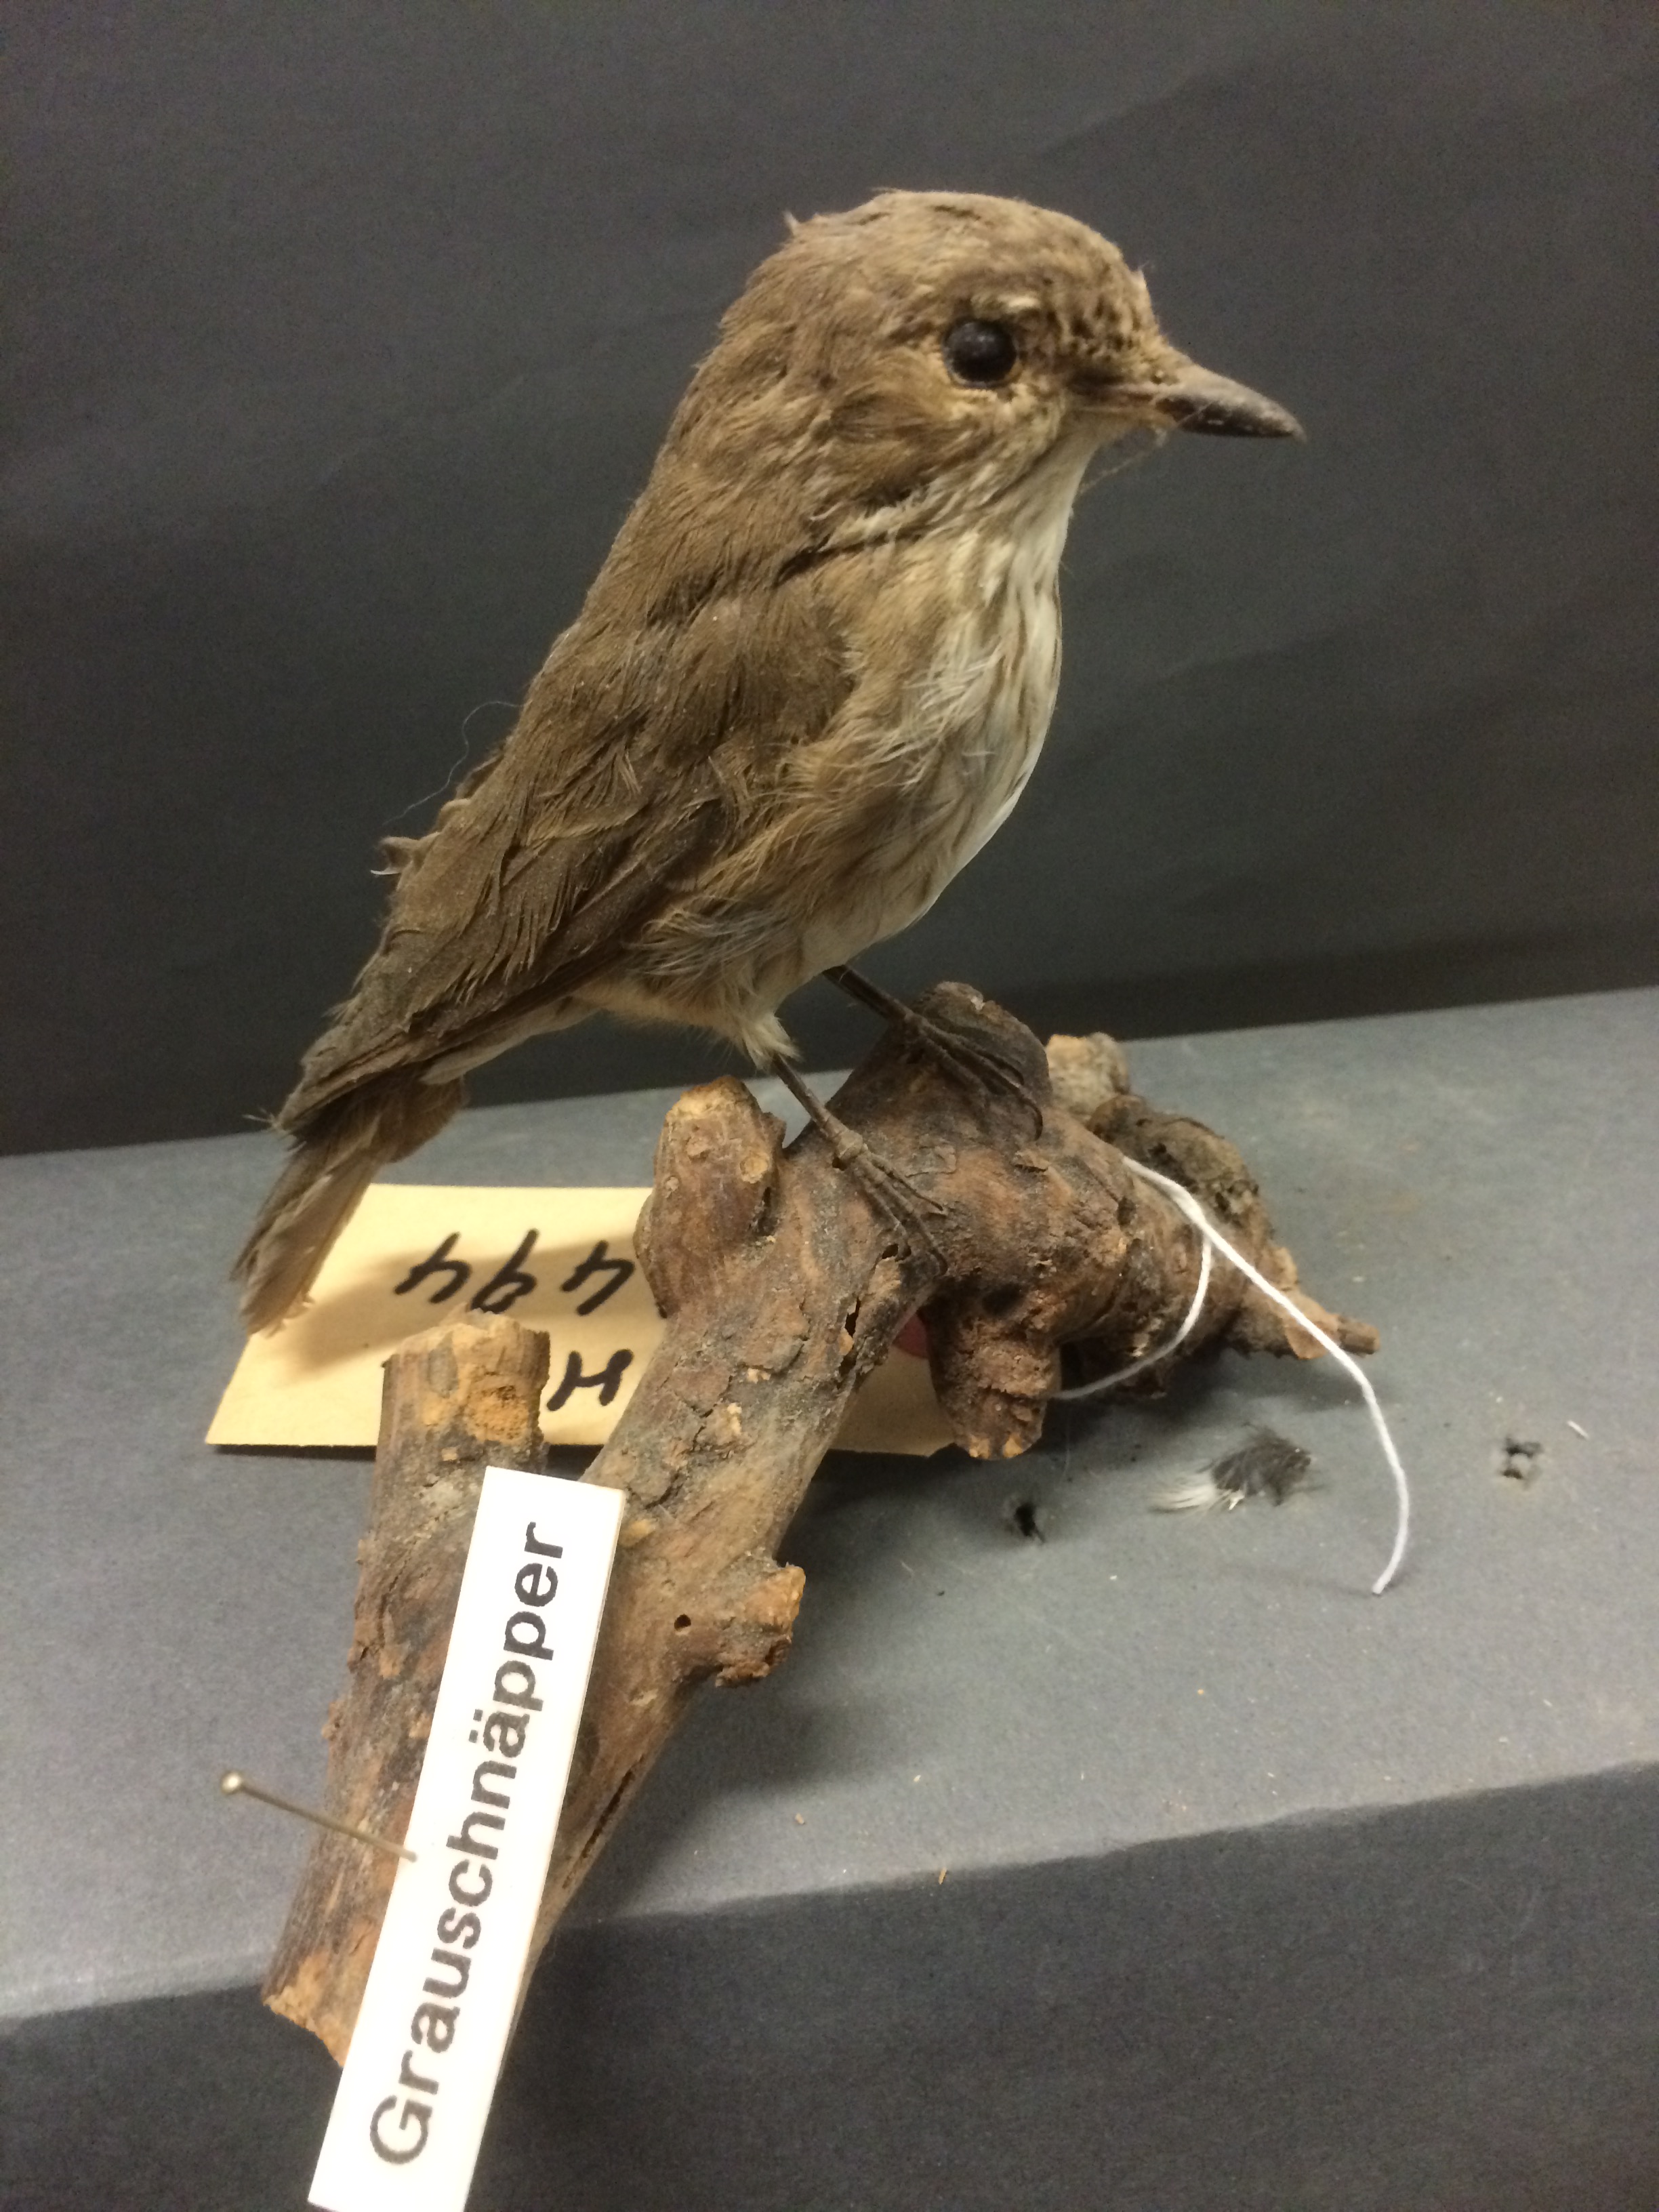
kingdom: Animalia
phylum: Chordata
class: Aves
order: Passeriformes
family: Muscicapidae
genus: Muscicapa
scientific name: Muscicapa striata
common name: Spotted flycatcher
